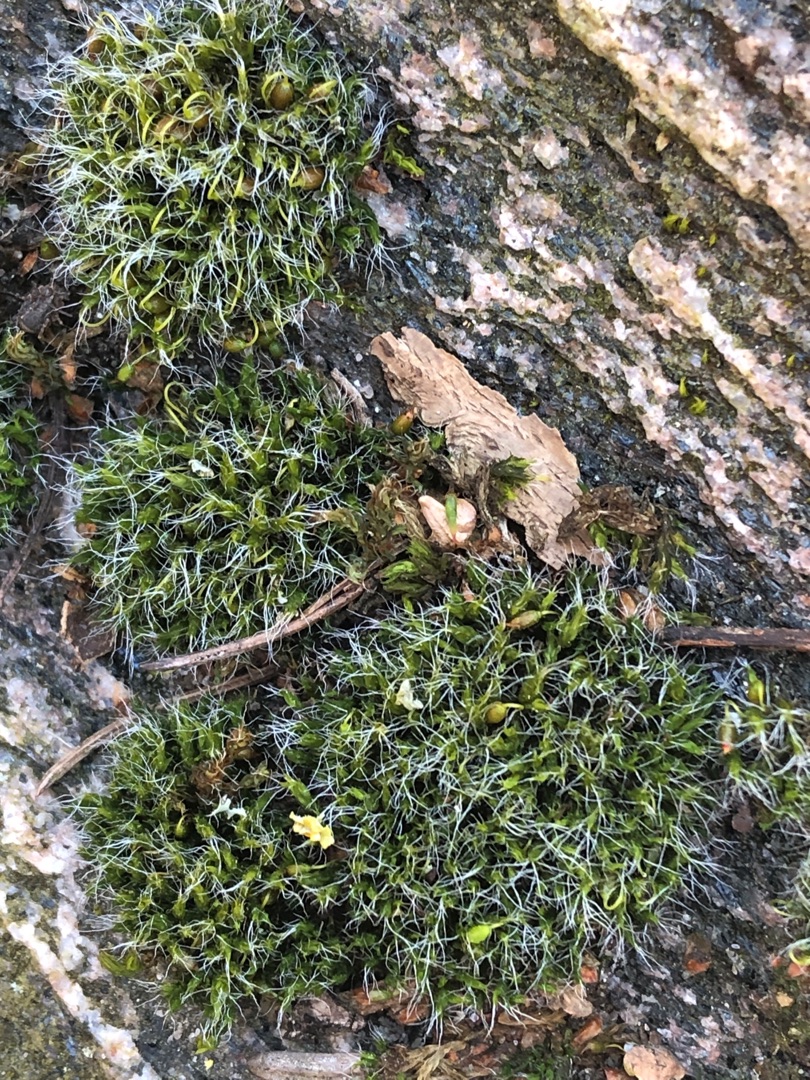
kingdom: Plantae
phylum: Bryophyta
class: Bryopsida
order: Grimmiales
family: Grimmiaceae
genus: Grimmia
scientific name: Grimmia pulvinata
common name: Pude-gråmos
